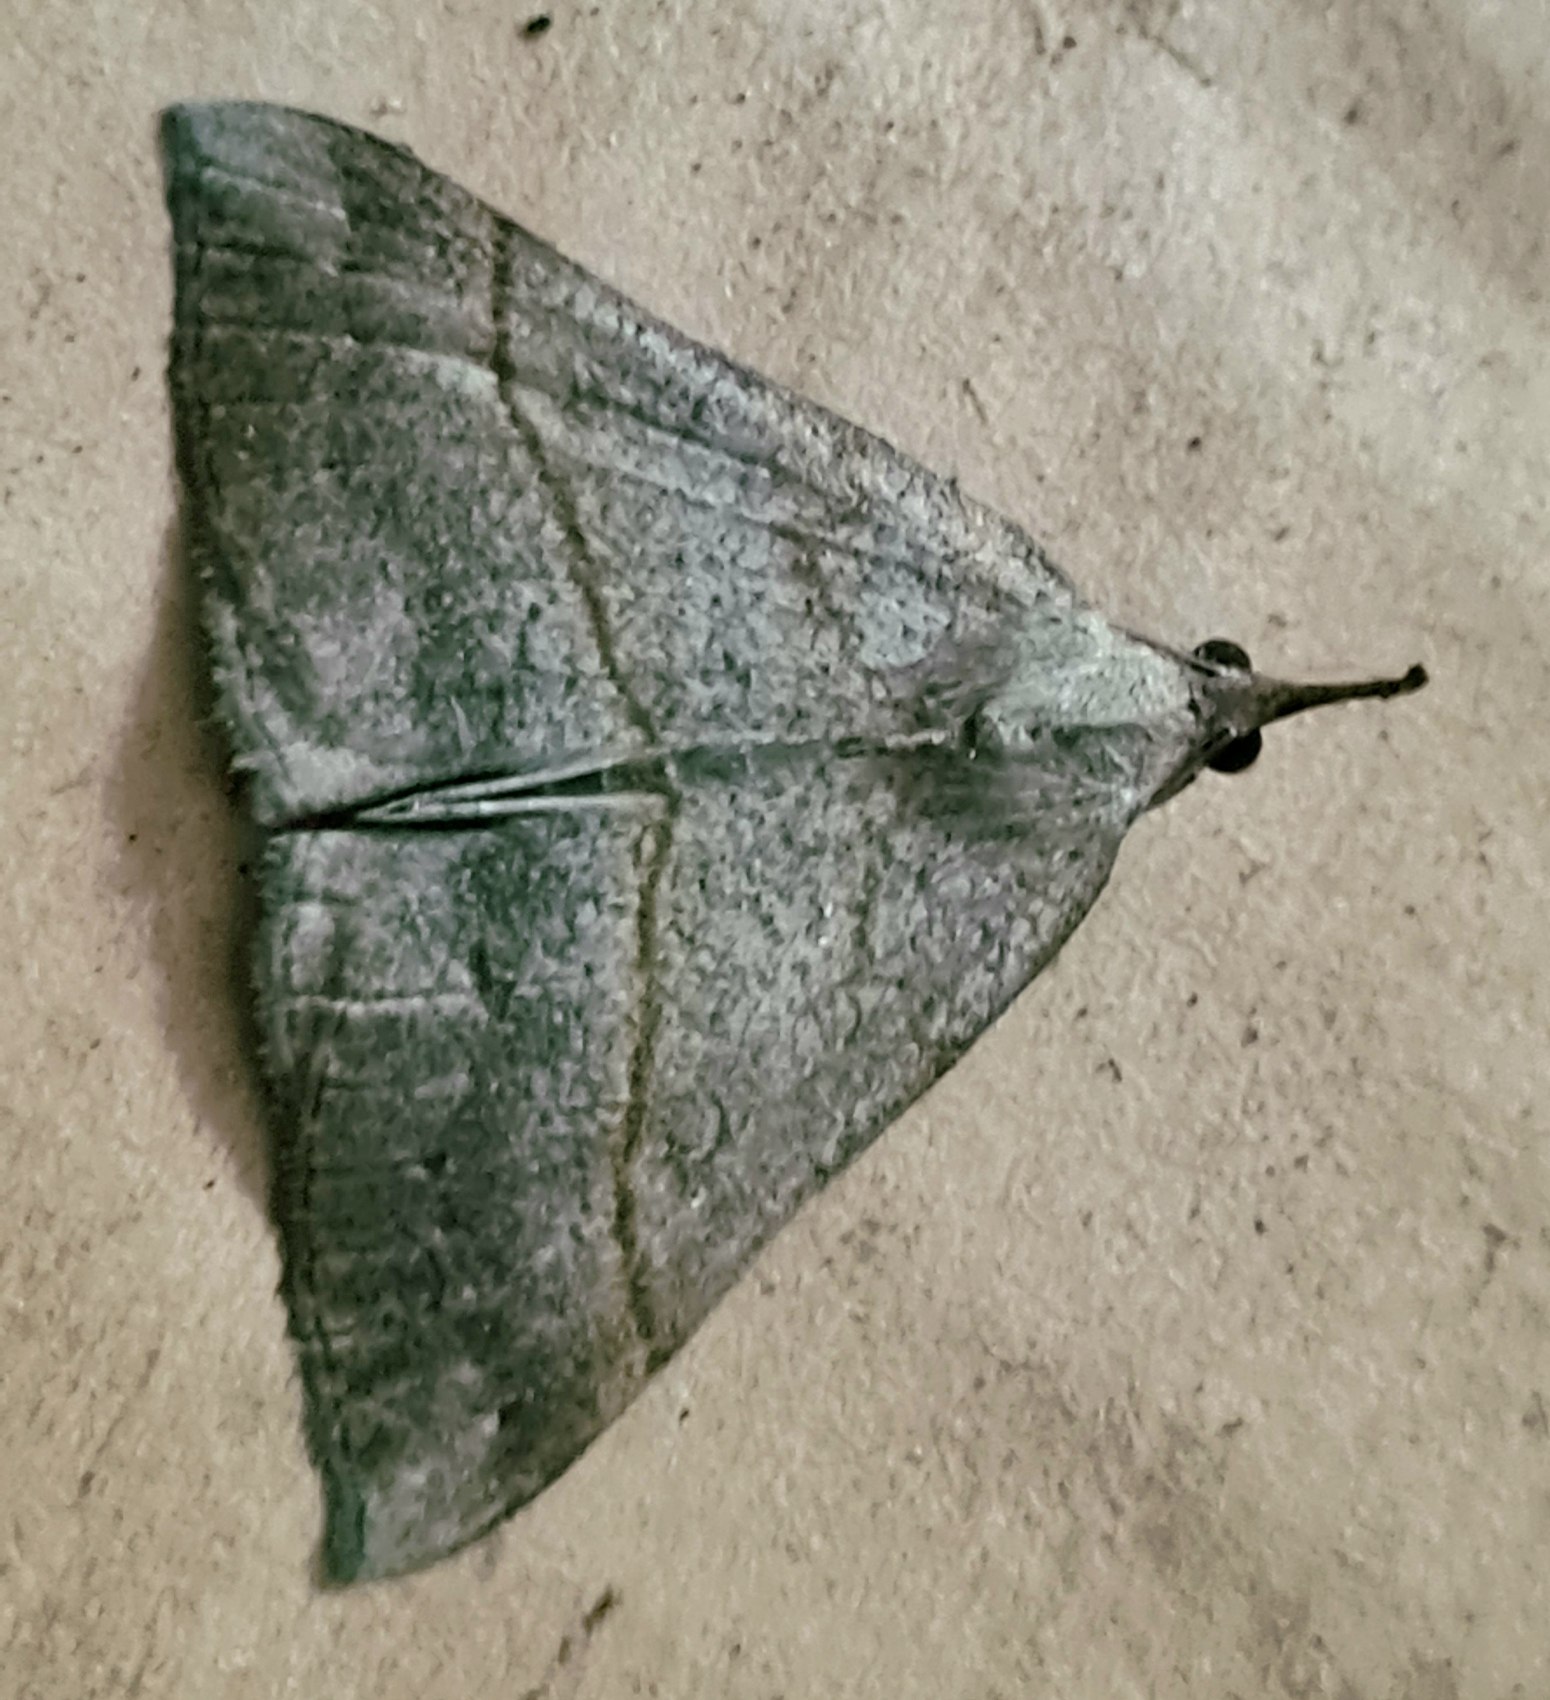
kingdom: Animalia
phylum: Arthropoda
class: Insecta
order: Lepidoptera
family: Erebidae
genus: Hypena
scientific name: Hypena proboscidalis
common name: Snudeugle
